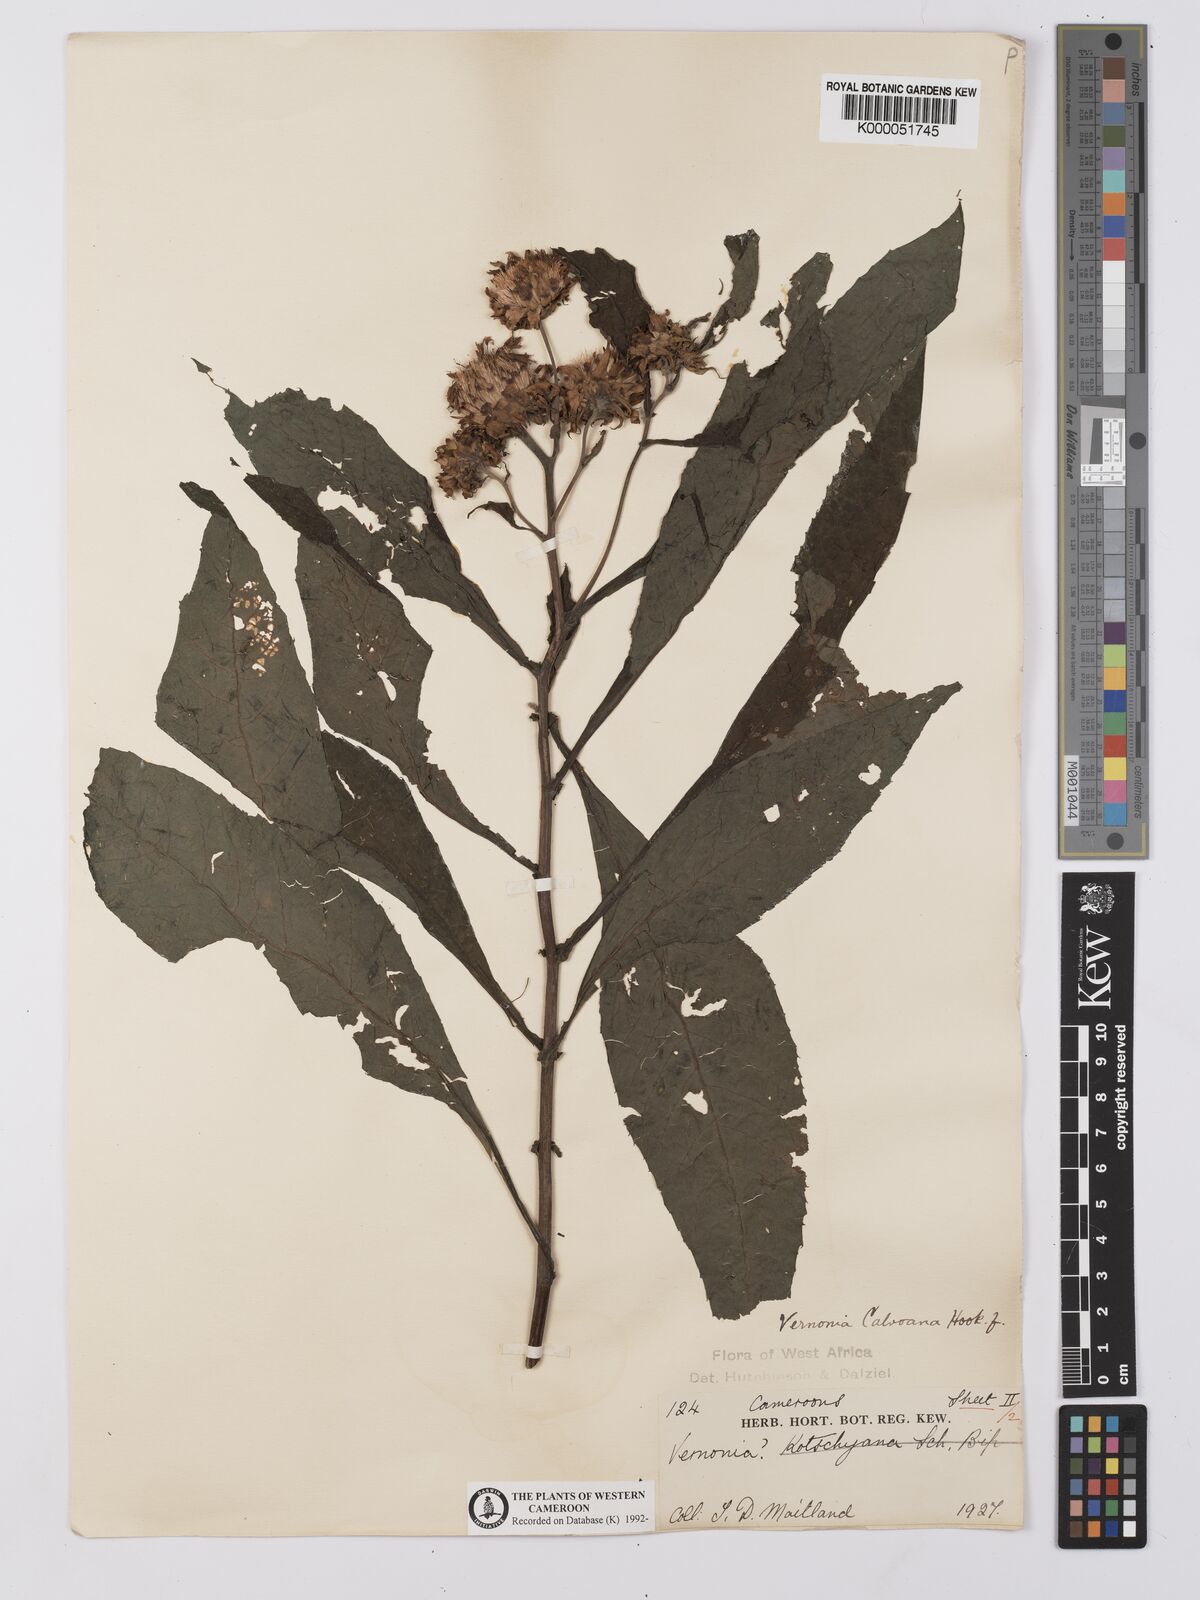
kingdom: Plantae
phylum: Tracheophyta
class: Magnoliopsida
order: Asterales
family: Asteraceae
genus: Baccharoides
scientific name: Baccharoides hymenolepis
